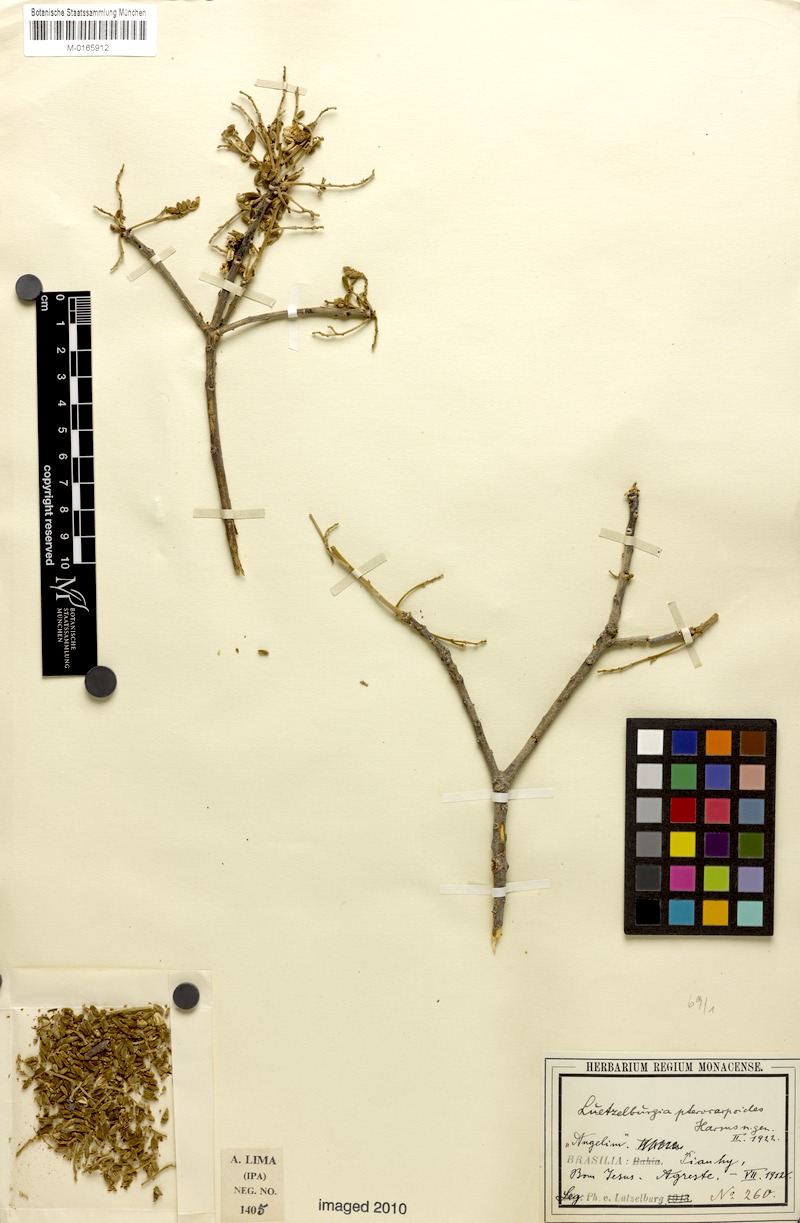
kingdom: Plantae
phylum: Tracheophyta
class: Magnoliopsida
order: Fabales
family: Fabaceae
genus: Luetzelburgia
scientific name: Luetzelburgia auriculata
